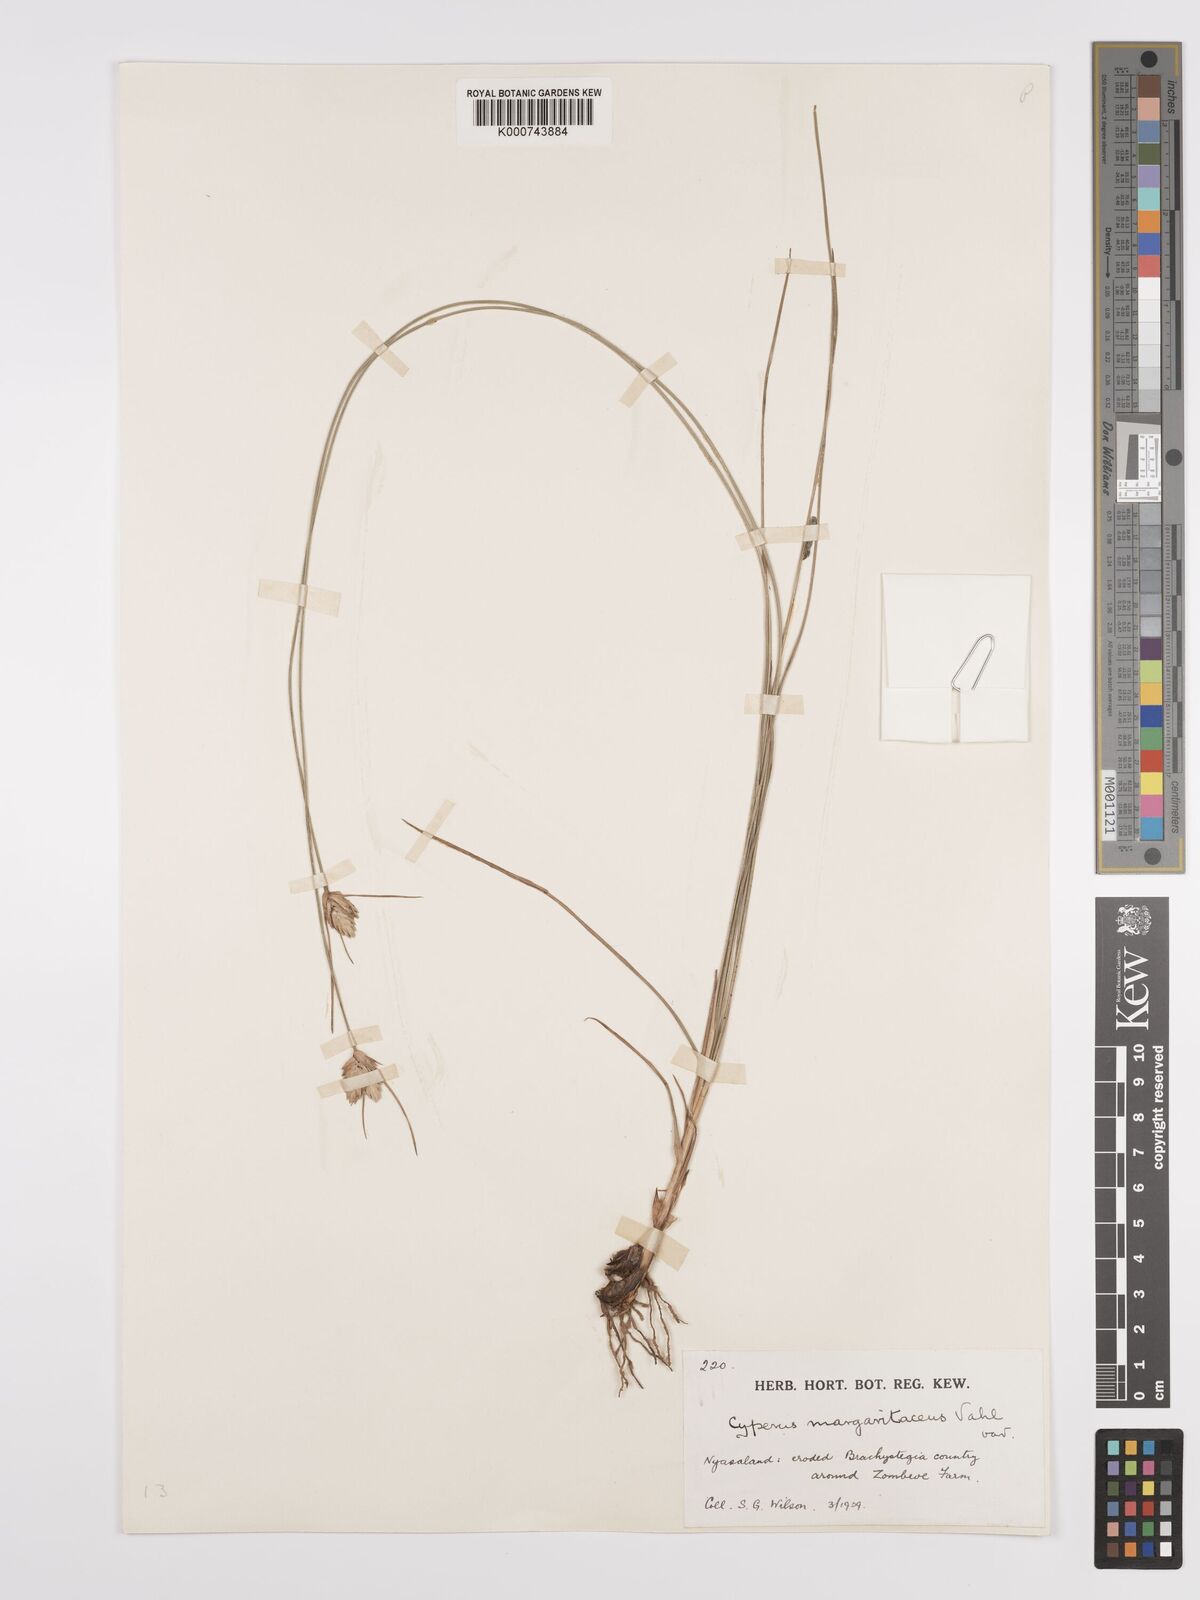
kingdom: Plantae
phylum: Tracheophyta
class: Liliopsida
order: Poales
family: Cyperaceae
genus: Cyperus
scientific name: Cyperus margaritaceus
